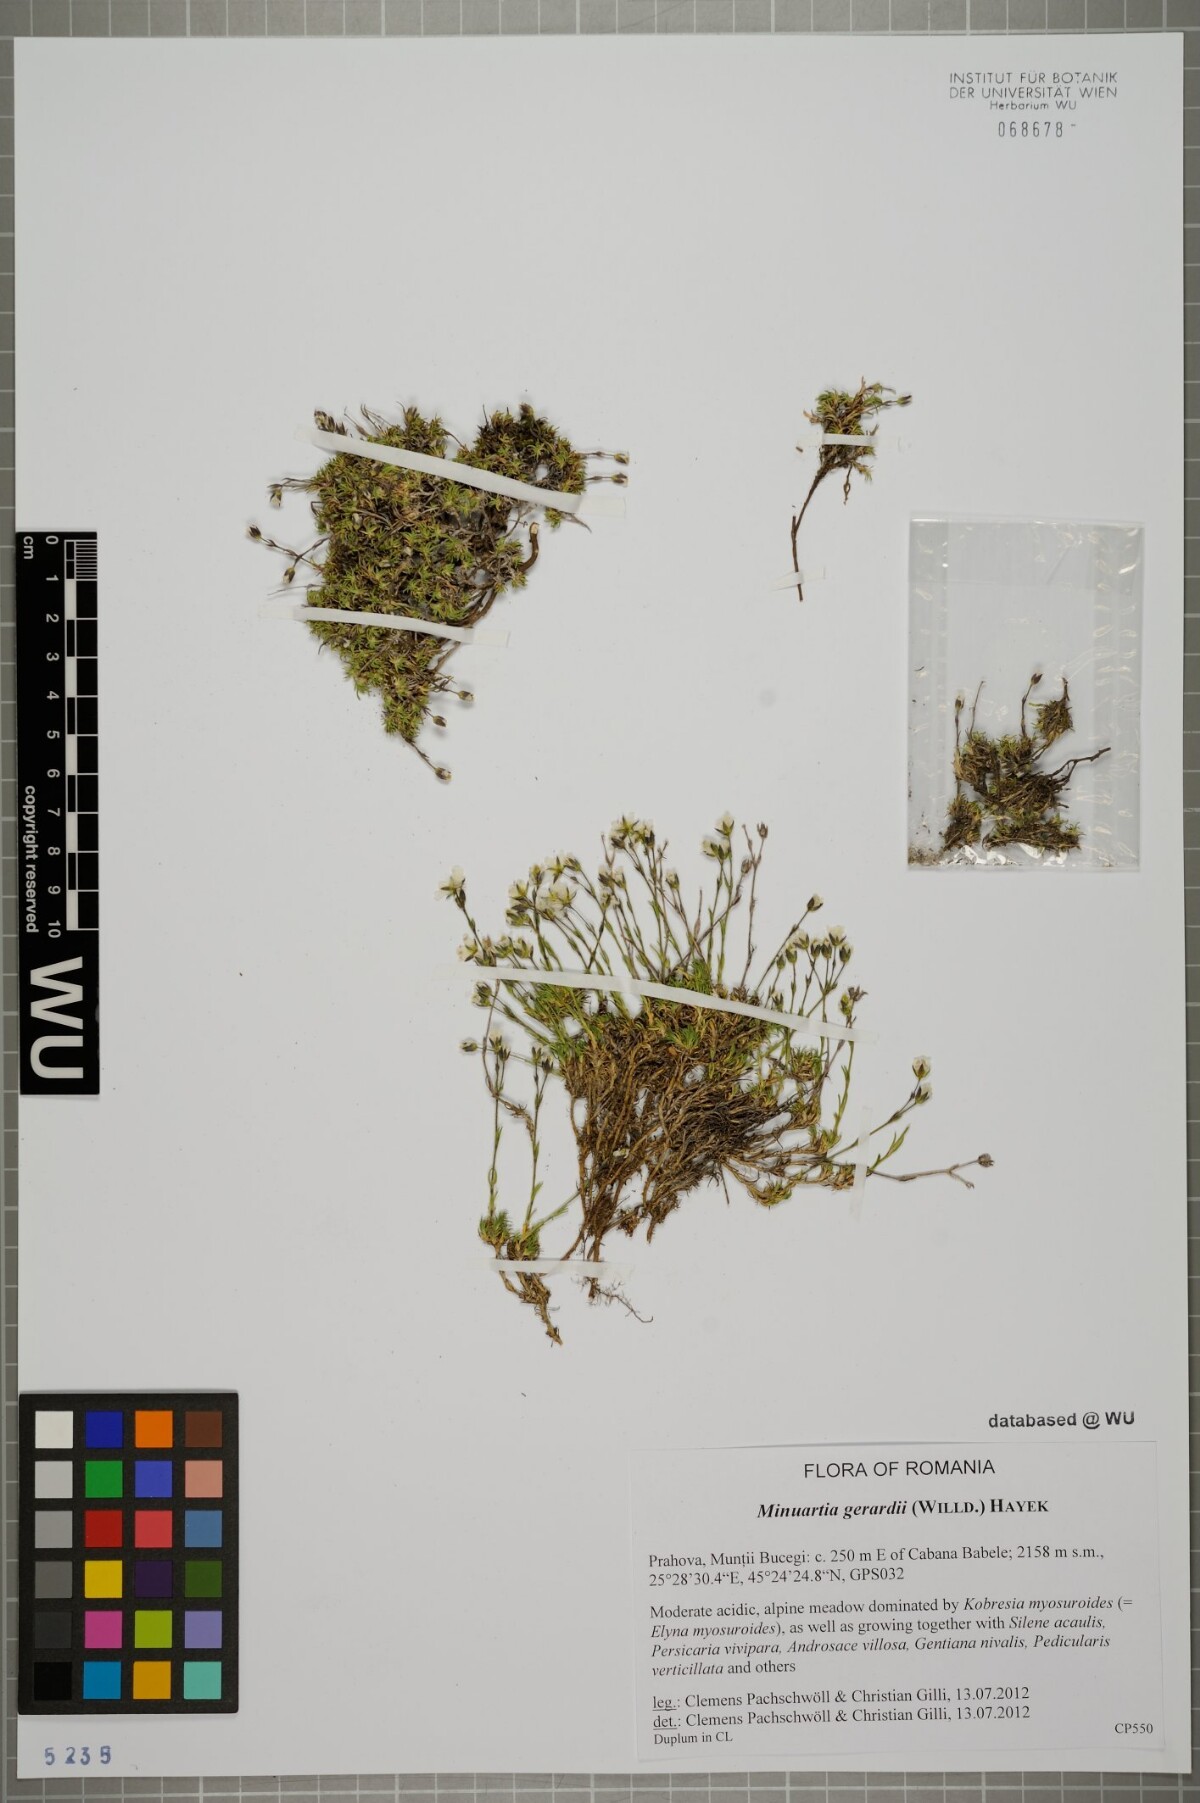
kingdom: Plantae
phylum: Tracheophyta
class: Magnoliopsida
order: Caryophyllales
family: Caryophyllaceae
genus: Sabulina
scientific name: Sabulina verna
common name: Spring sandwort
